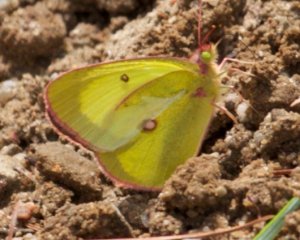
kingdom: Animalia
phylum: Arthropoda
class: Insecta
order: Lepidoptera
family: Pieridae
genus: Colias
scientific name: Colias interior
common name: Pink-edged Sulphur
